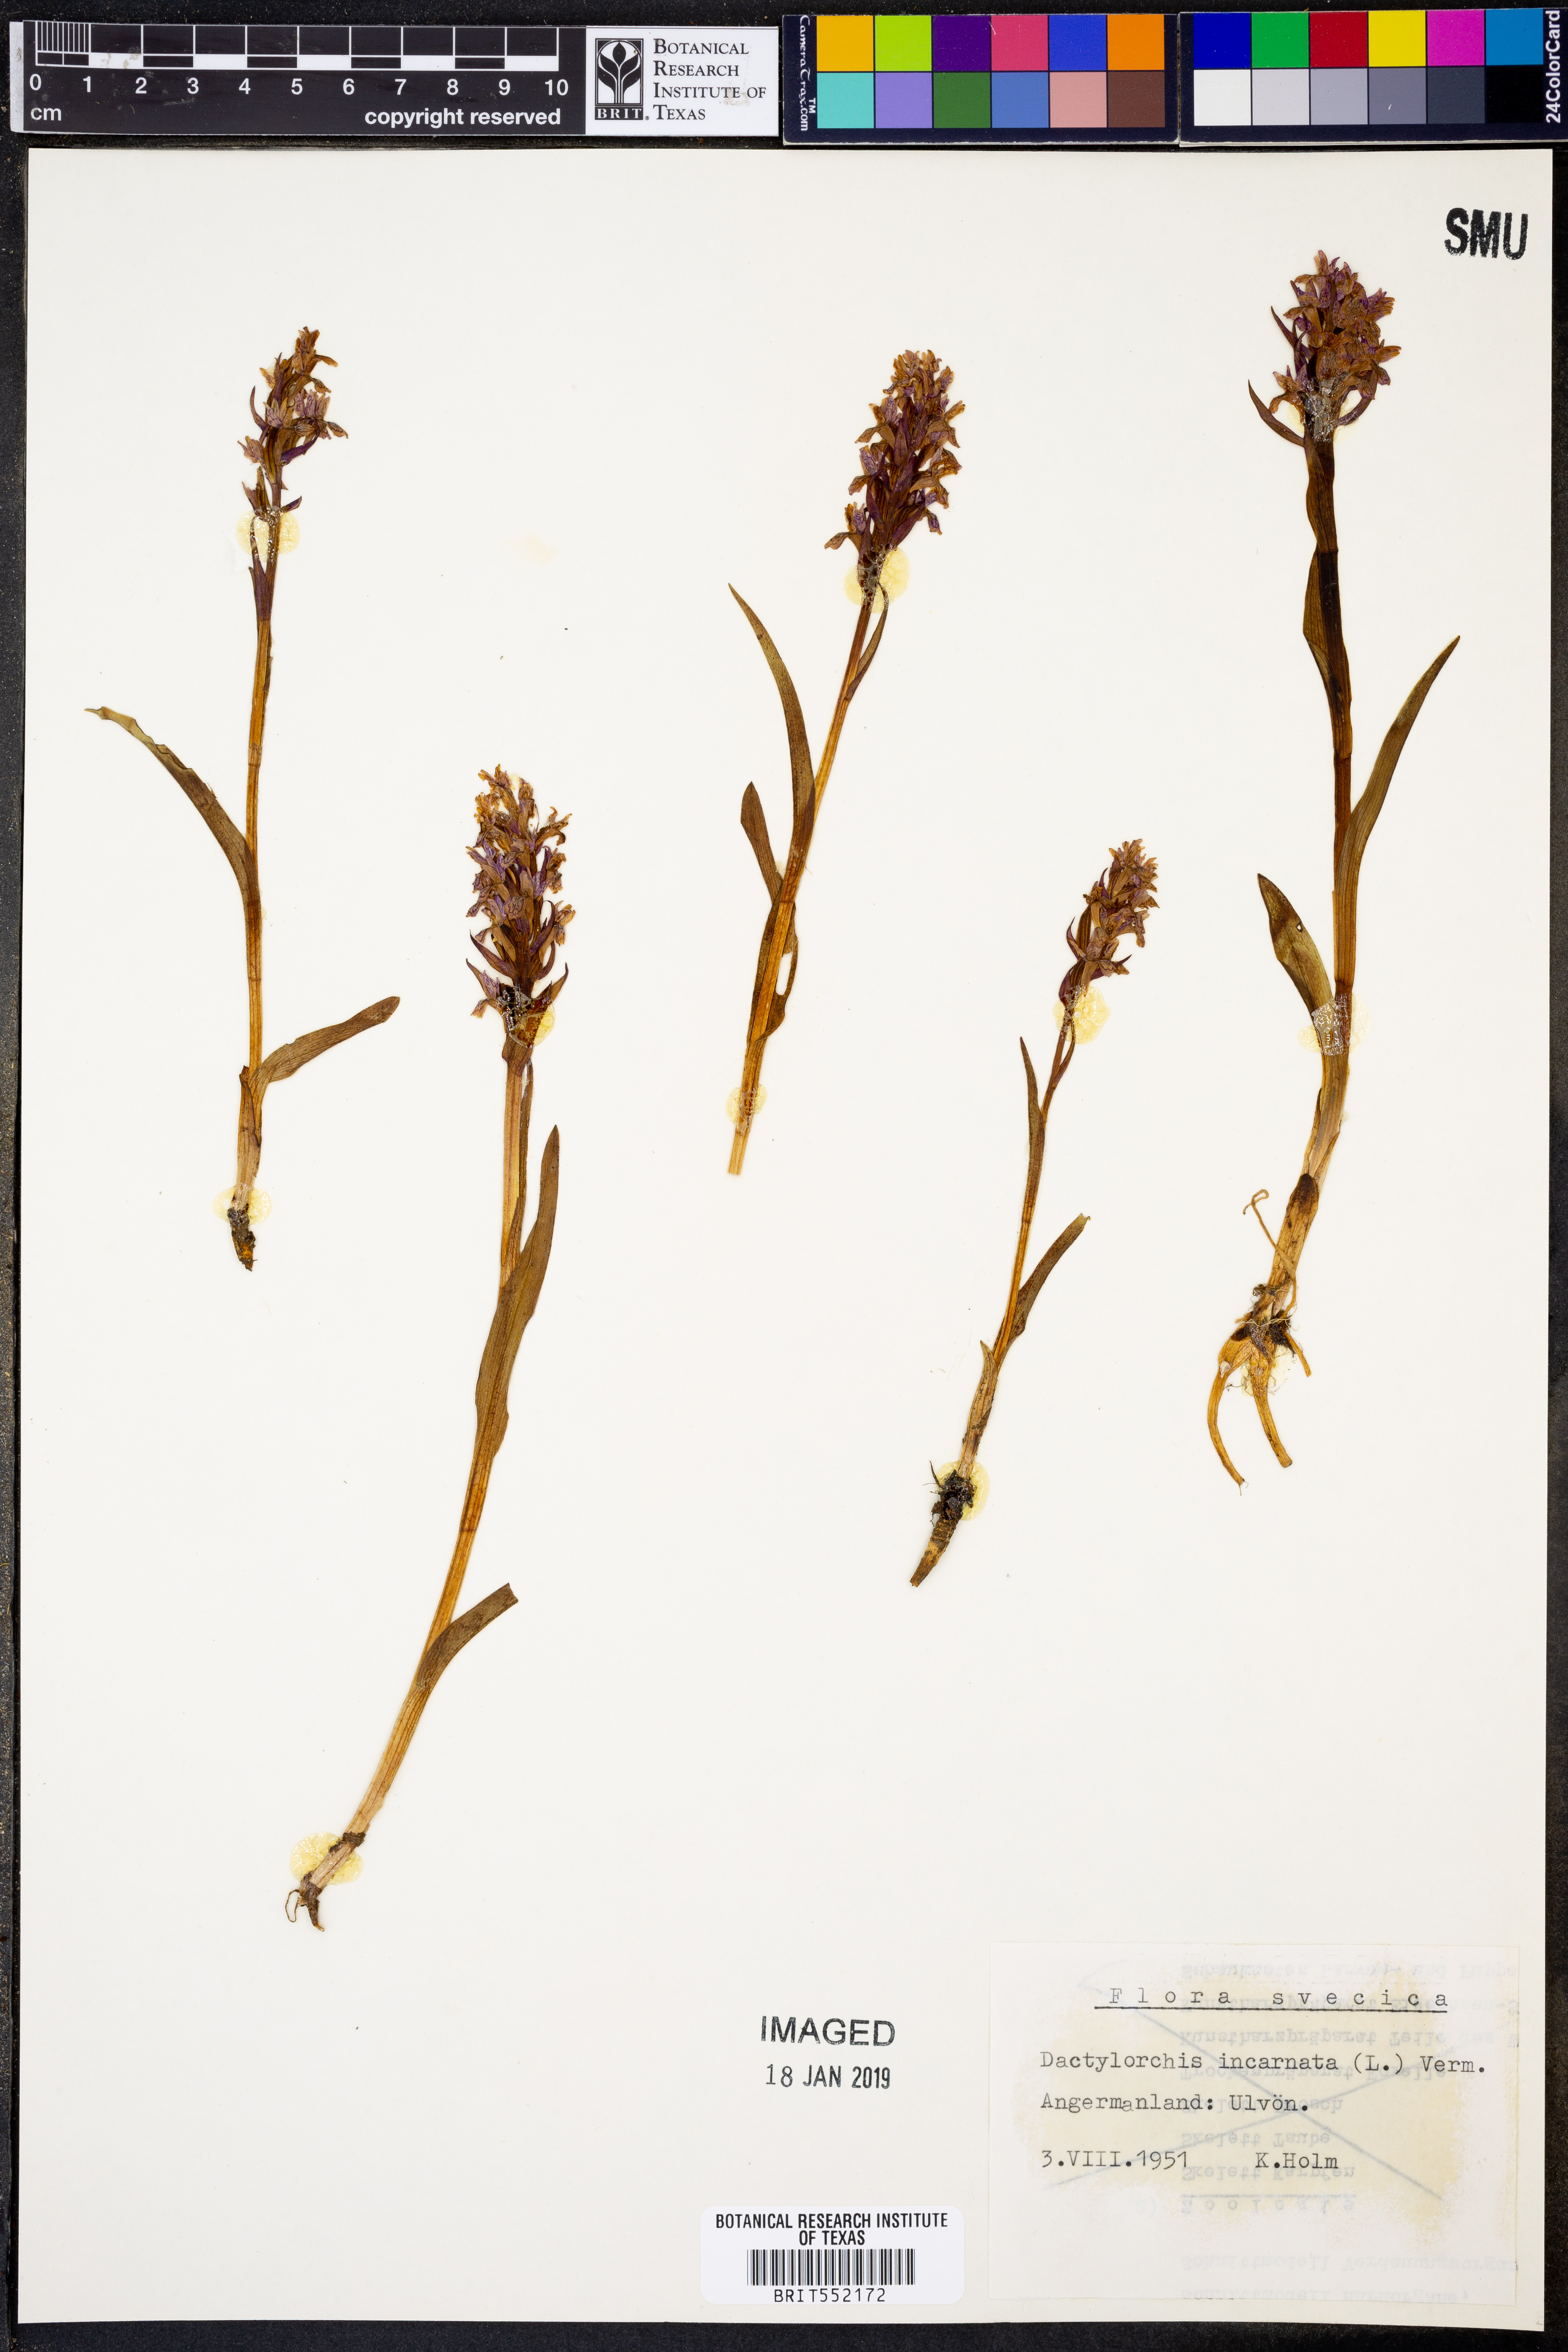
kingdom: Plantae
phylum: Tracheophyta
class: Liliopsida
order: Asparagales
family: Orchidaceae
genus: Dactylorhiza
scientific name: Dactylorhiza incarnata
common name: Early marsh-orchid
